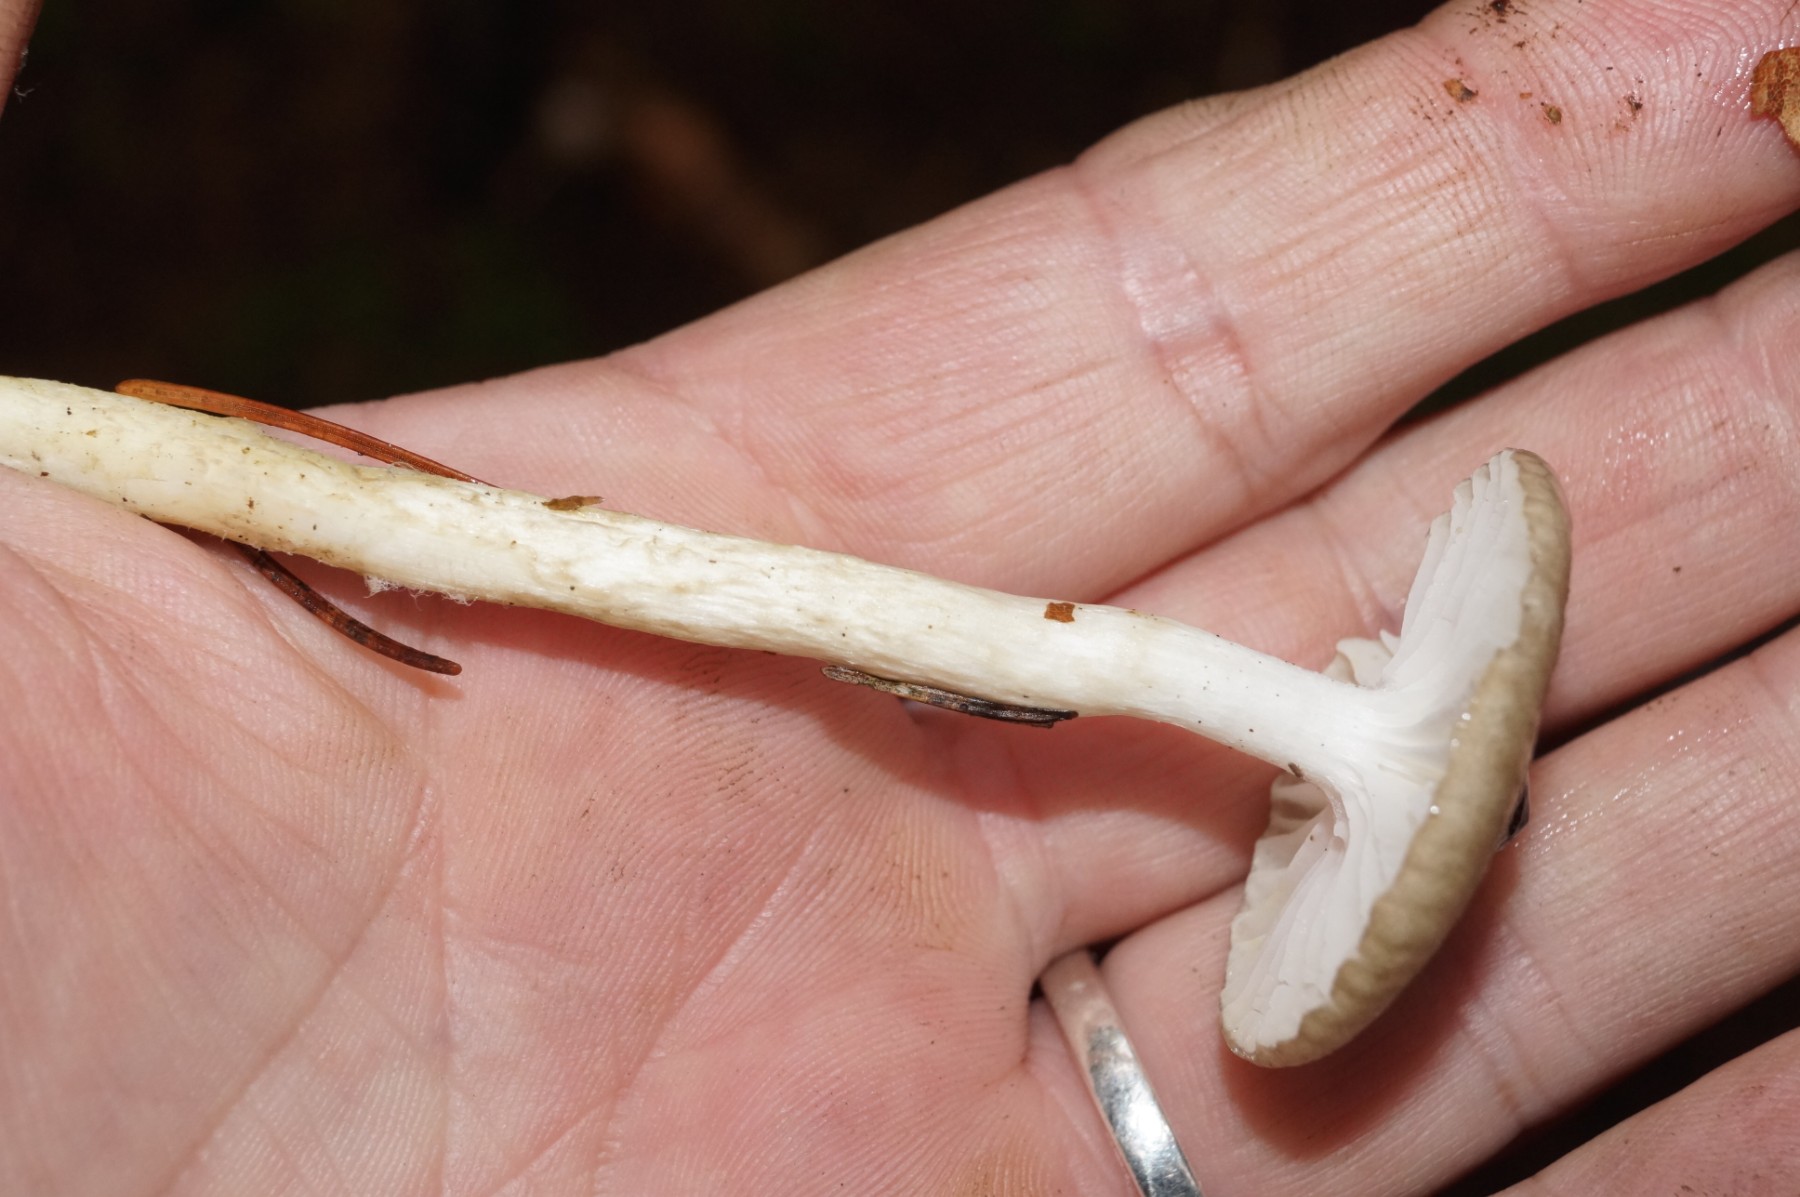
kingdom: Fungi
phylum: Basidiomycota
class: Agaricomycetes
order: Agaricales
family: Hygrophoraceae
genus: Hygrophorus
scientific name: Hygrophorus olivaceoalbus
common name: hvidbrun sneglehat
